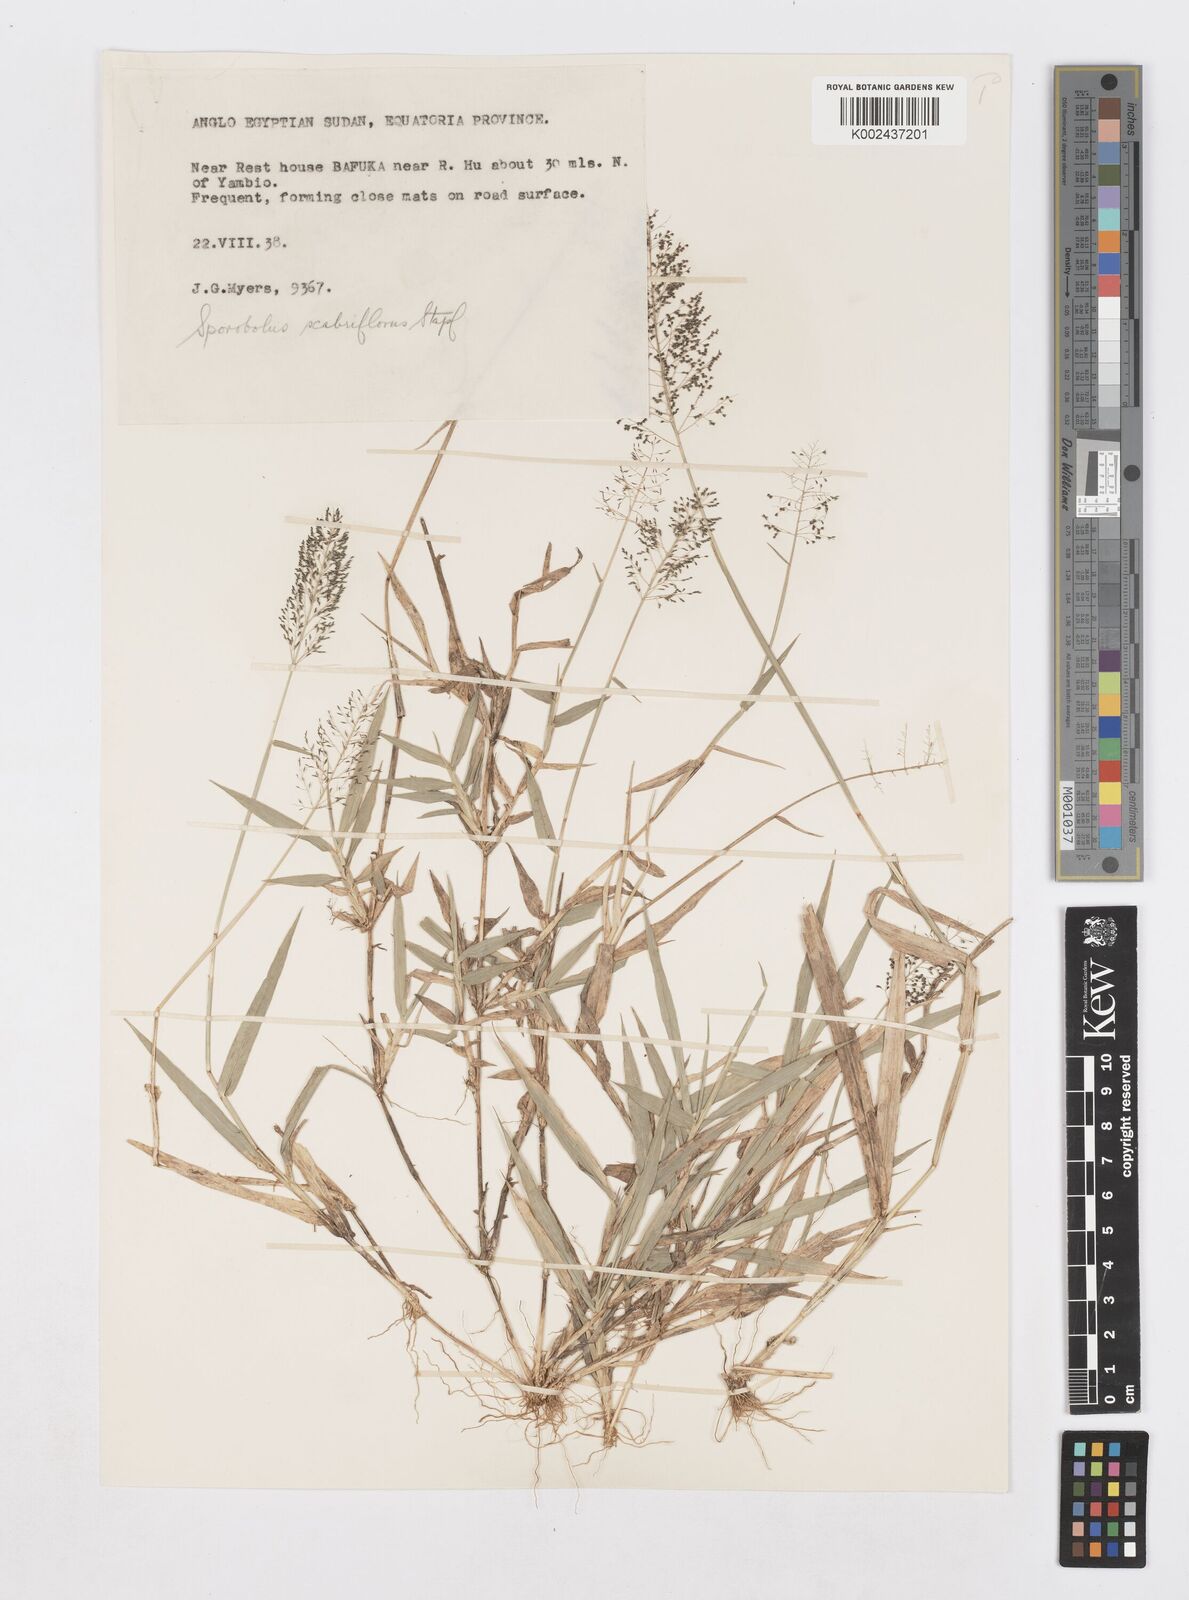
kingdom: Plantae
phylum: Tracheophyta
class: Liliopsida
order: Poales
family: Poaceae
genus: Sporobolus
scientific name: Sporobolus microprotus
